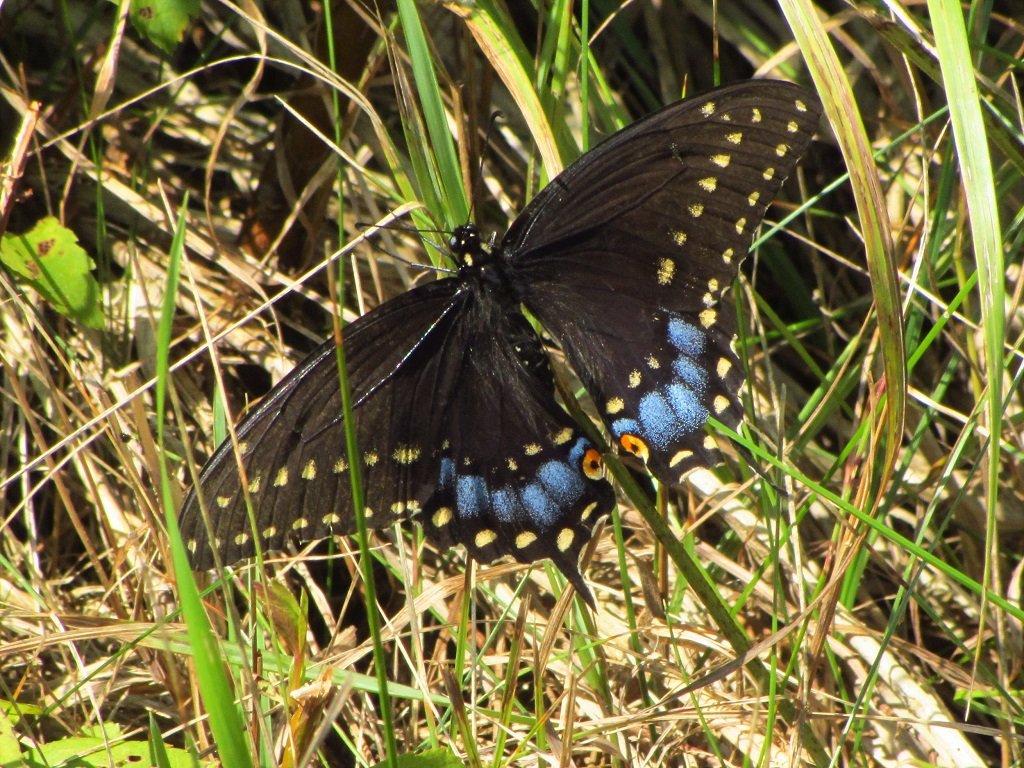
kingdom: Animalia
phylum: Arthropoda
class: Insecta
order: Lepidoptera
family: Papilionidae
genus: Papilio
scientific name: Papilio polyxenes
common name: Black Swallowtail
